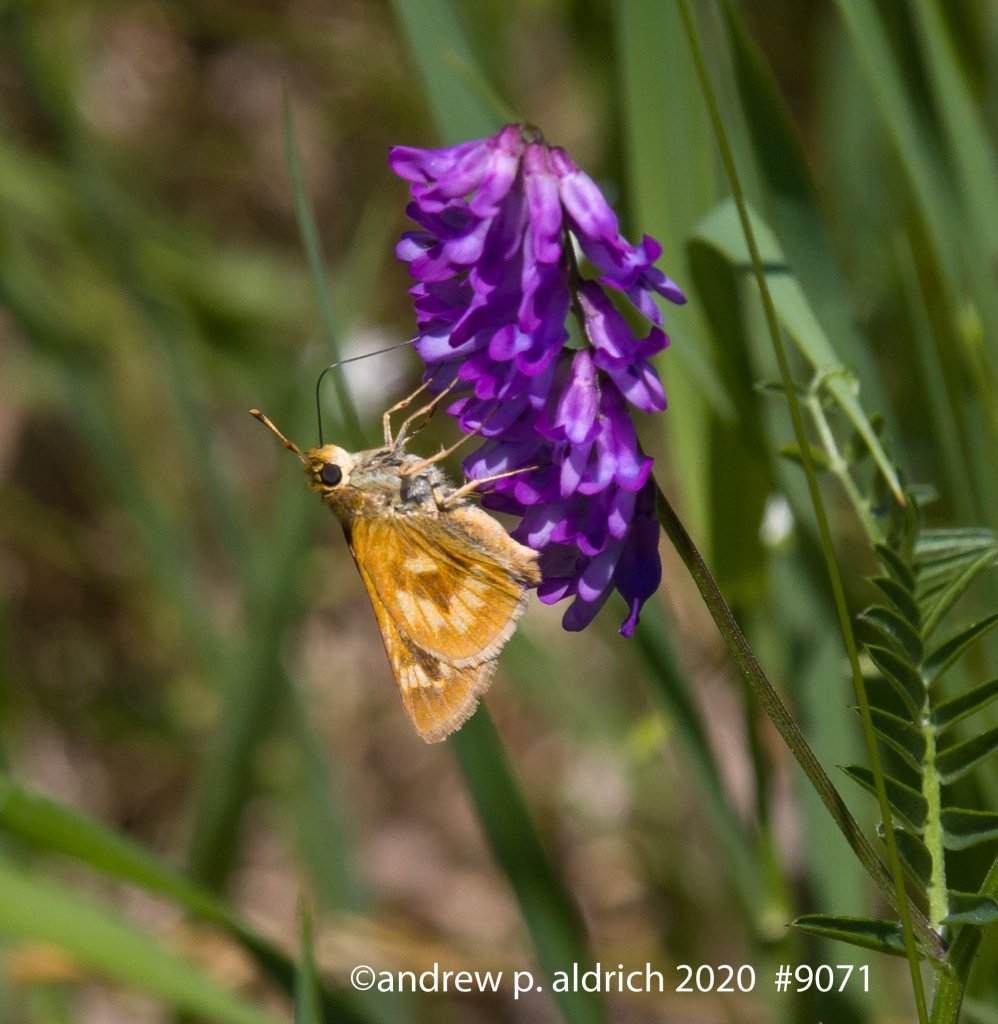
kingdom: Animalia
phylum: Arthropoda
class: Insecta
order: Lepidoptera
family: Hesperiidae
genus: Polites
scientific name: Polites
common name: Long Dash Skipper
